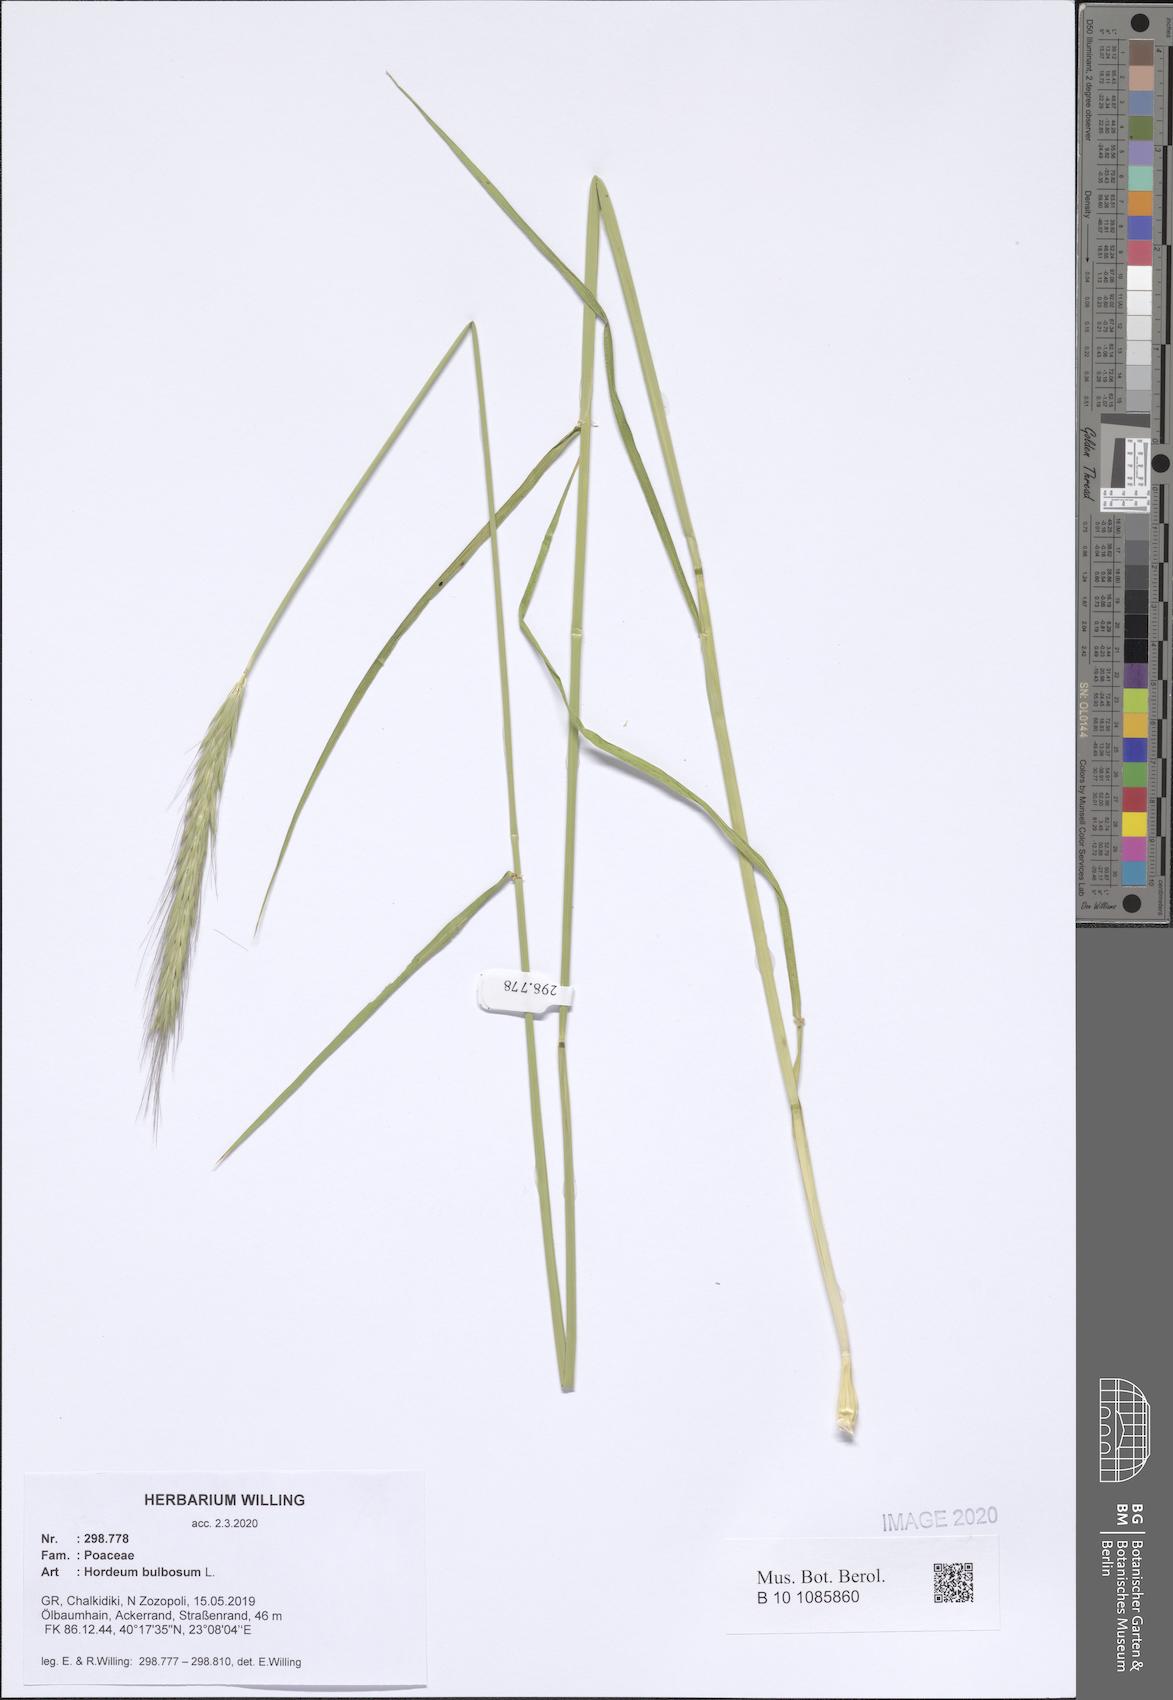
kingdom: Plantae
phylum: Tracheophyta
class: Liliopsida
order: Poales
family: Poaceae
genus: Hordeum
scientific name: Hordeum bulbosum
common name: Bulbous barley
